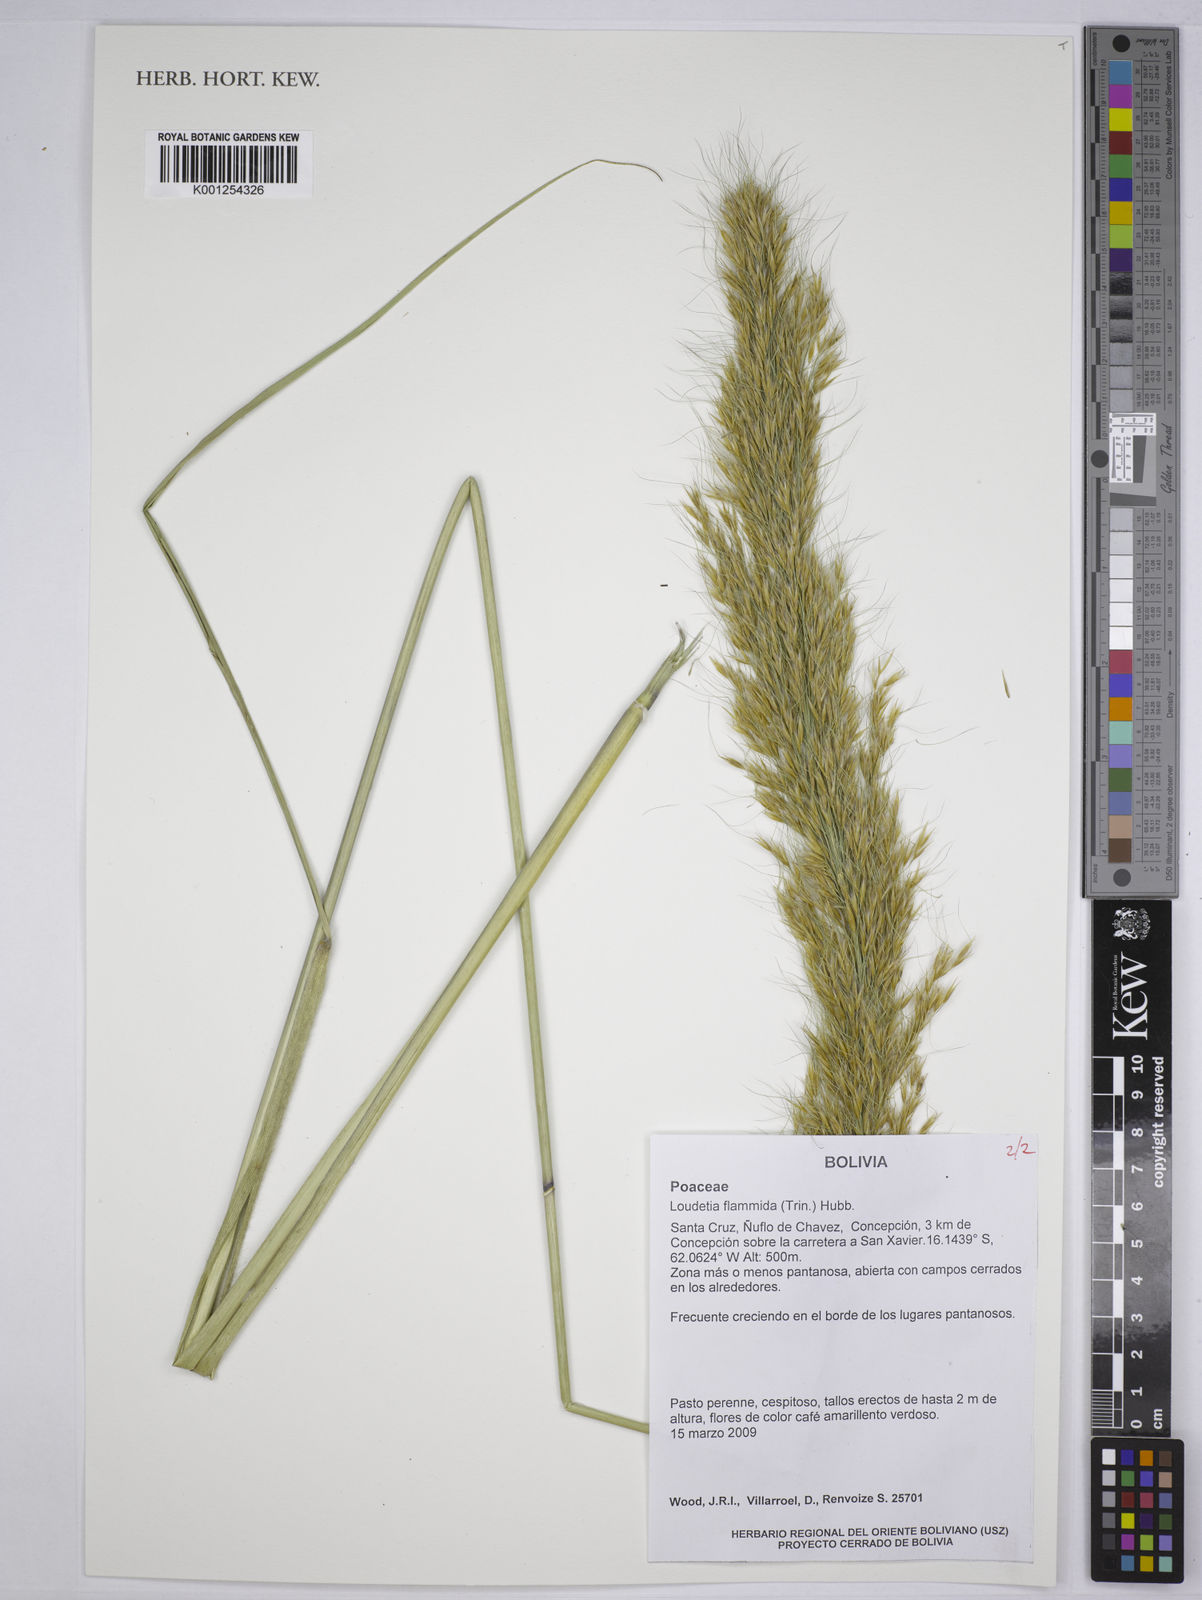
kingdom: Plantae
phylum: Tracheophyta
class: Liliopsida
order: Poales
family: Poaceae
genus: Loudetia
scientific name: Loudetia flammida
